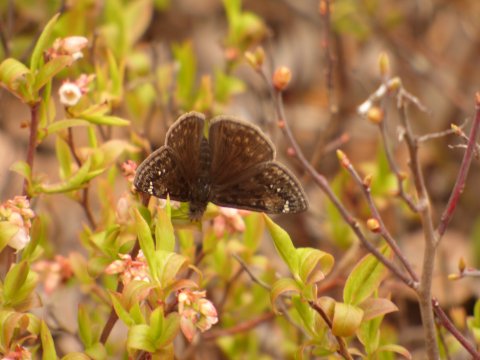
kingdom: Animalia
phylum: Arthropoda
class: Insecta
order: Lepidoptera
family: Hesperiidae
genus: Gesta
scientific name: Gesta
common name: Juvenal's Duskywing
